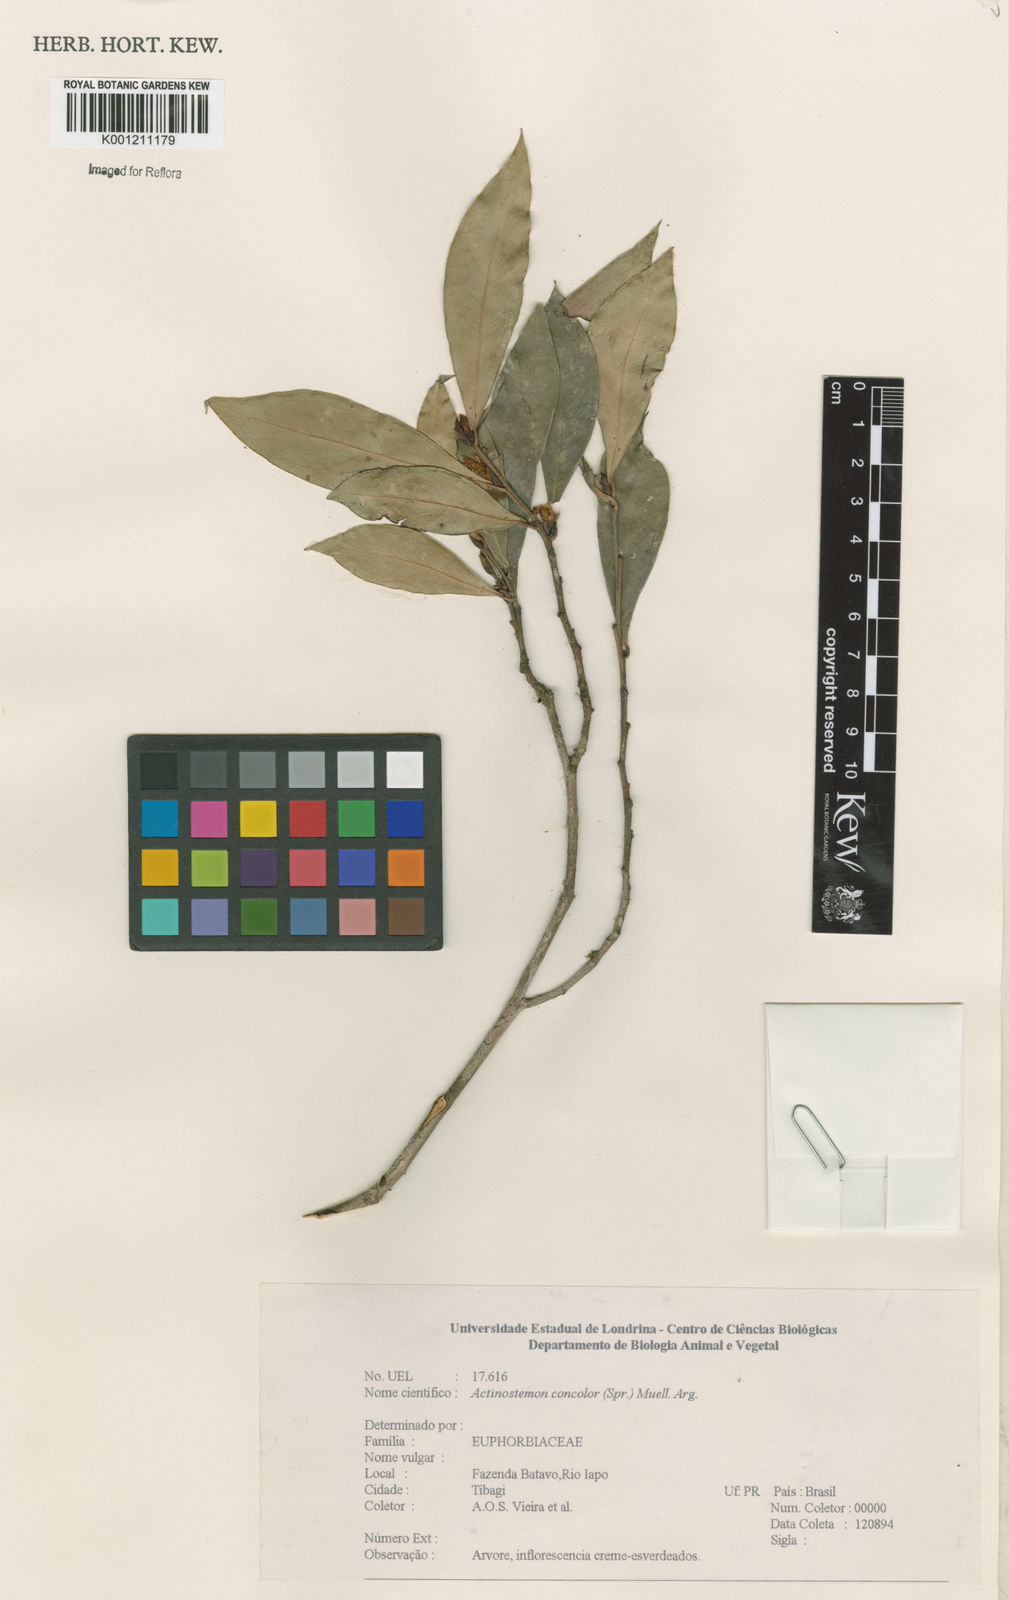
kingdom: Plantae
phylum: Tracheophyta
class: Magnoliopsida
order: Malpighiales
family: Euphorbiaceae
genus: Actinostemon
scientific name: Actinostemon
